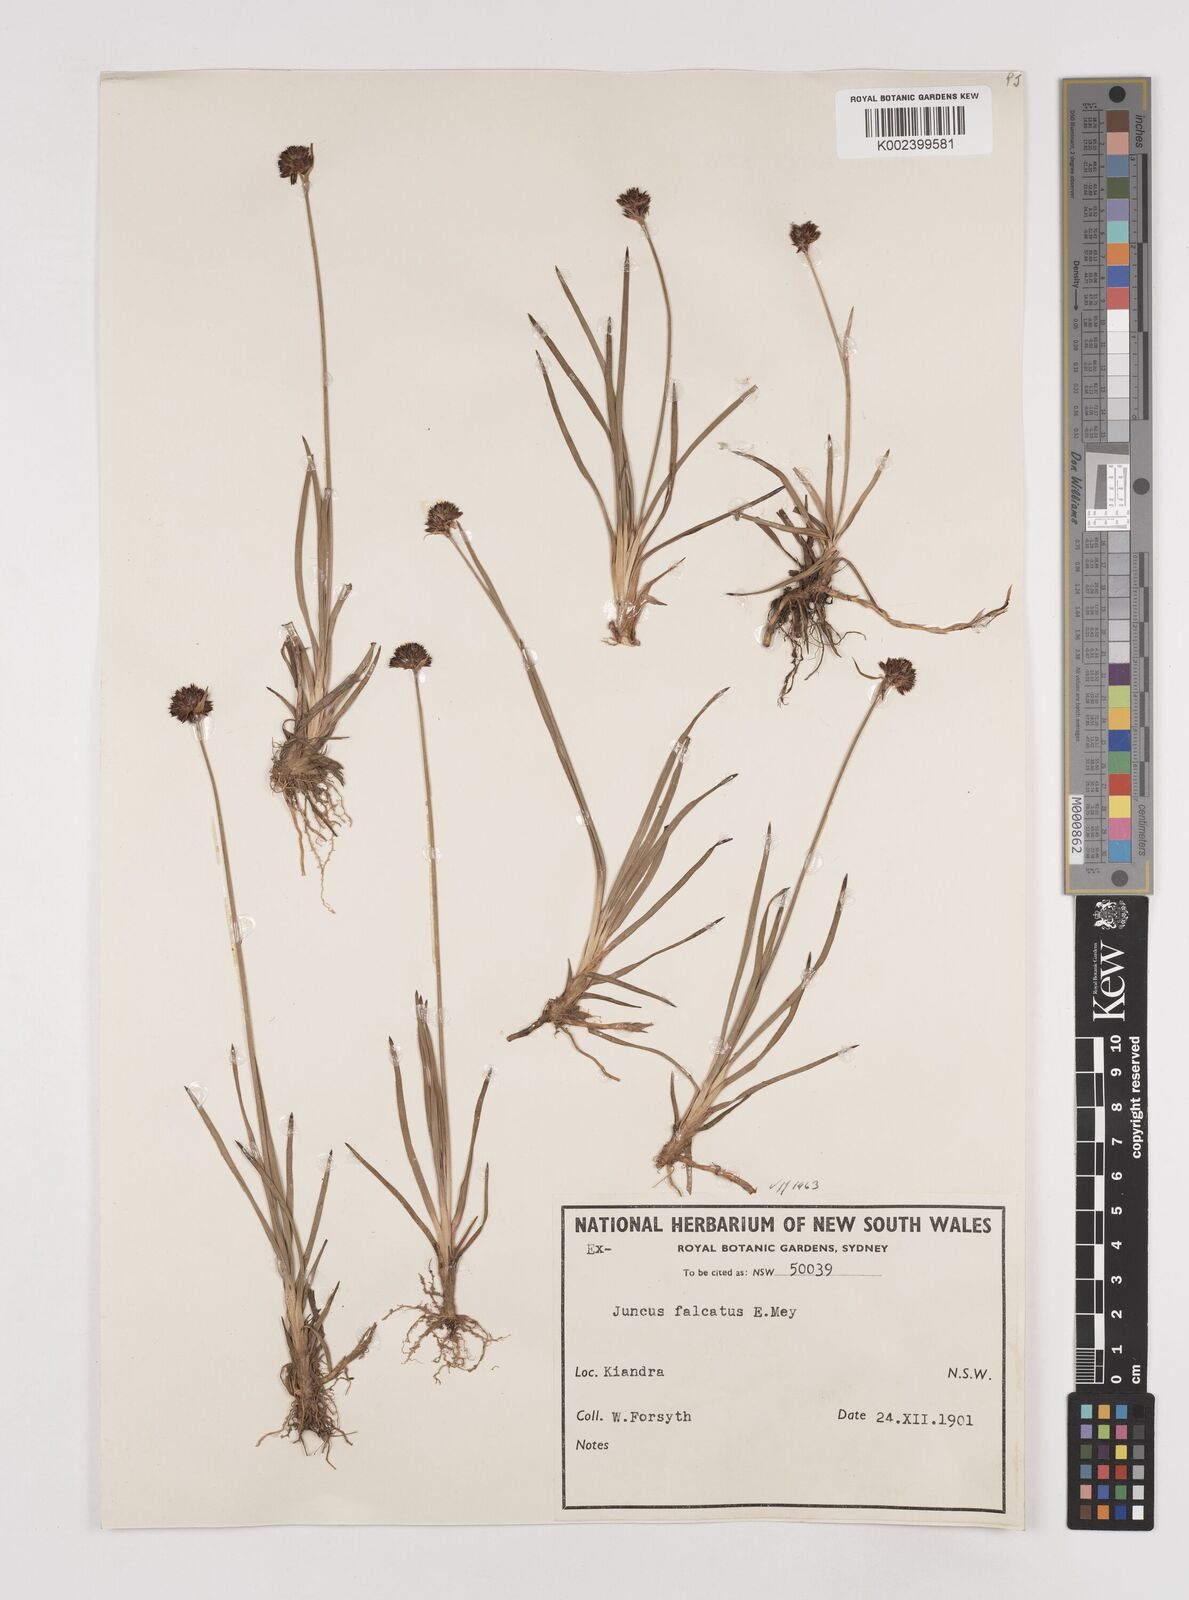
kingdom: Plantae
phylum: Tracheophyta
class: Liliopsida
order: Poales
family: Juncaceae
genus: Juncus
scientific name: Juncus falcatus
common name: Sickle-leaf rush
